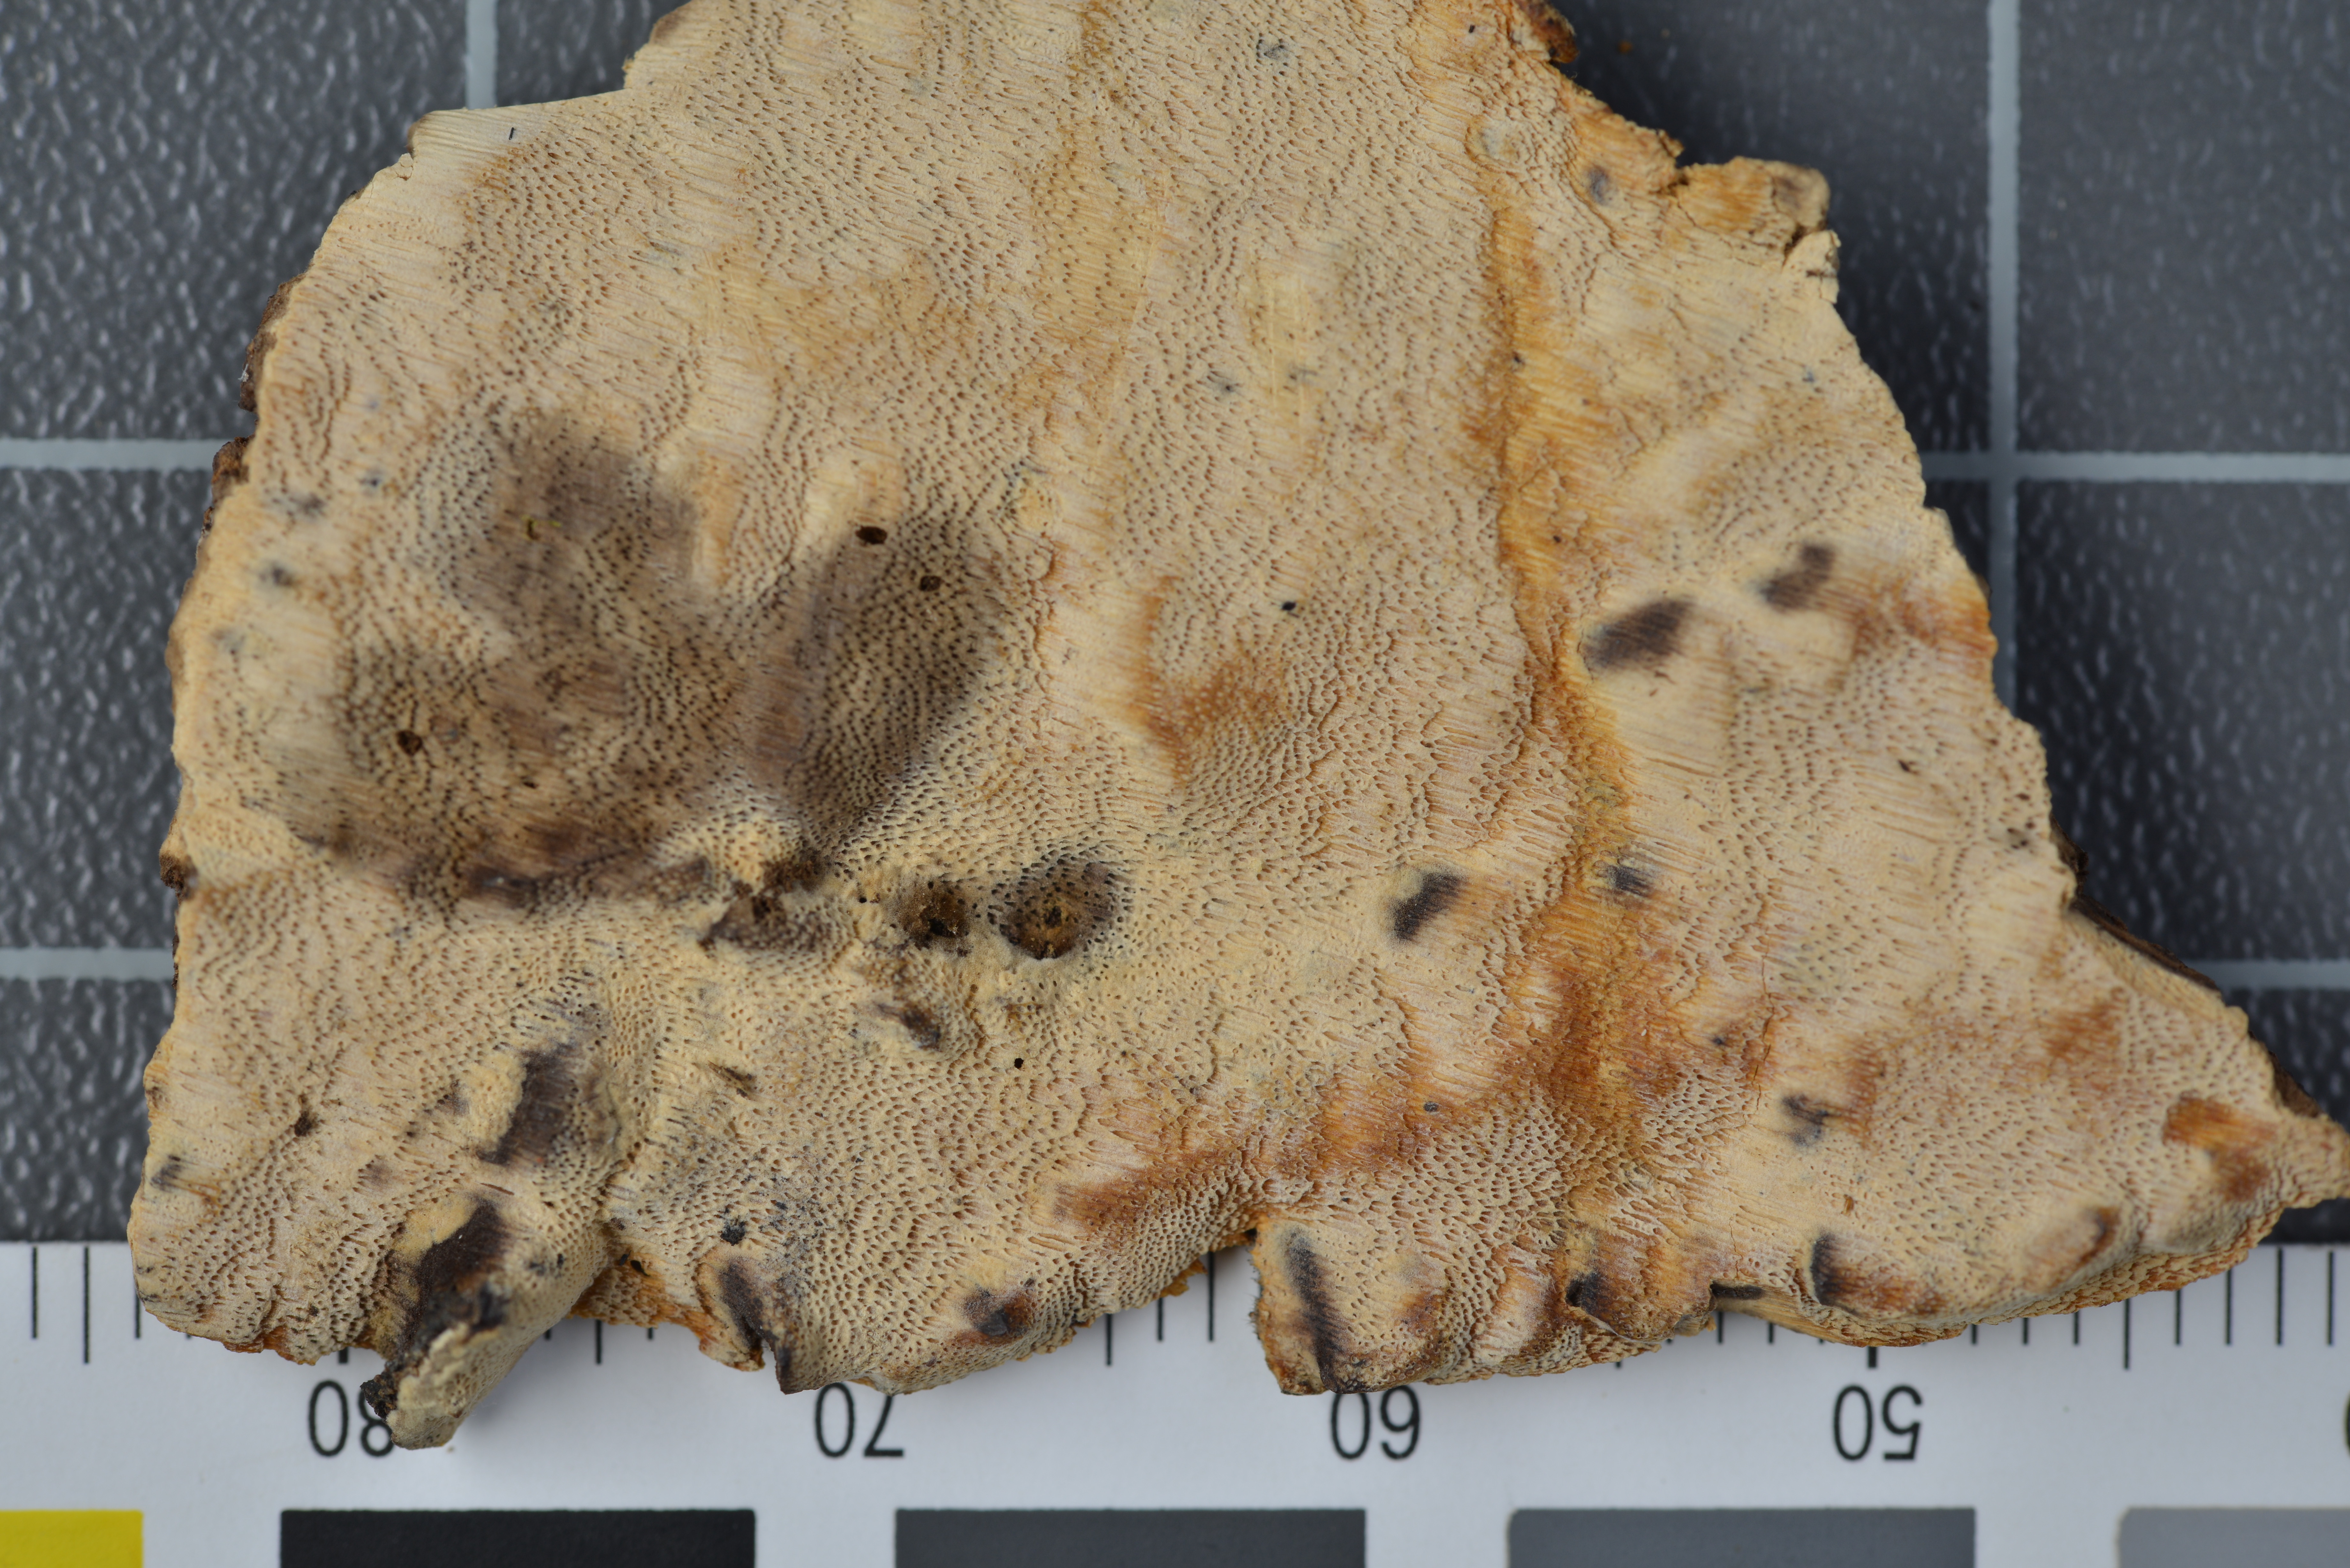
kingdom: Fungi
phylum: Basidiomycota
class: Agaricomycetes
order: Polyporales
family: Polyporaceae
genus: Perenniporia
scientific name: Perenniporia dendrohyphidia
